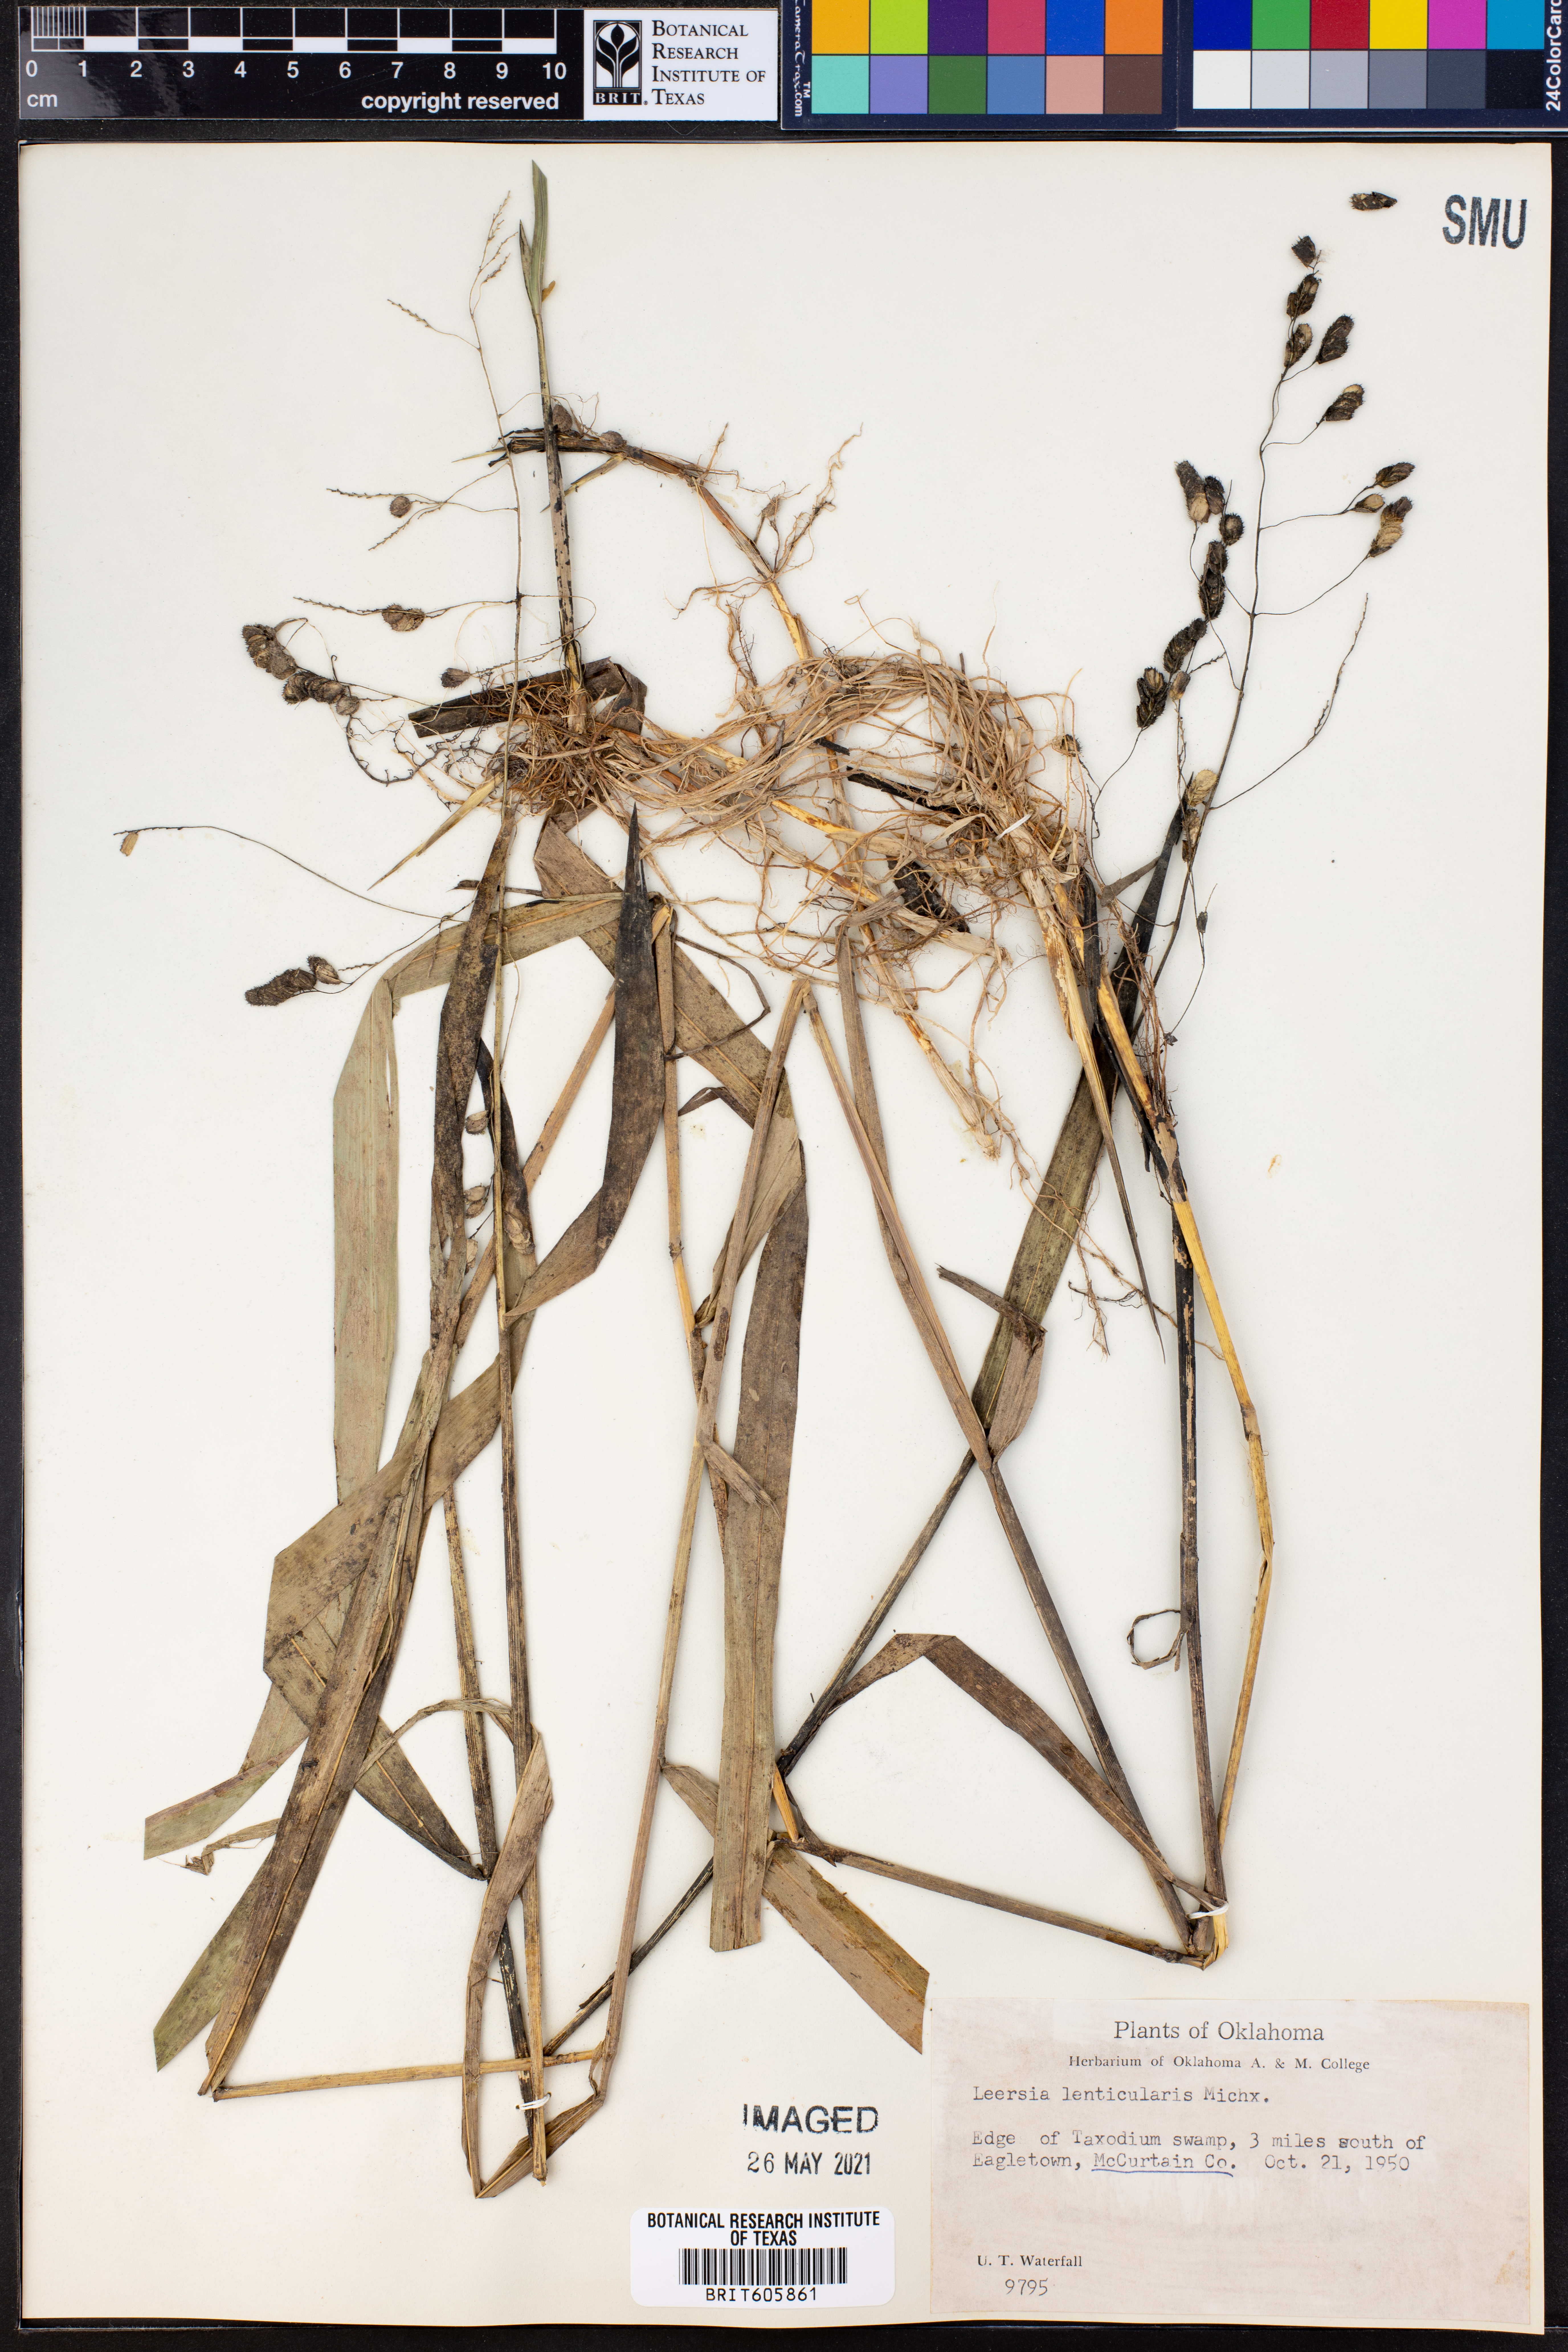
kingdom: Plantae
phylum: Tracheophyta
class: Liliopsida
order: Poales
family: Poaceae
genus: Leersia
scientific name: Leersia lenticularis
